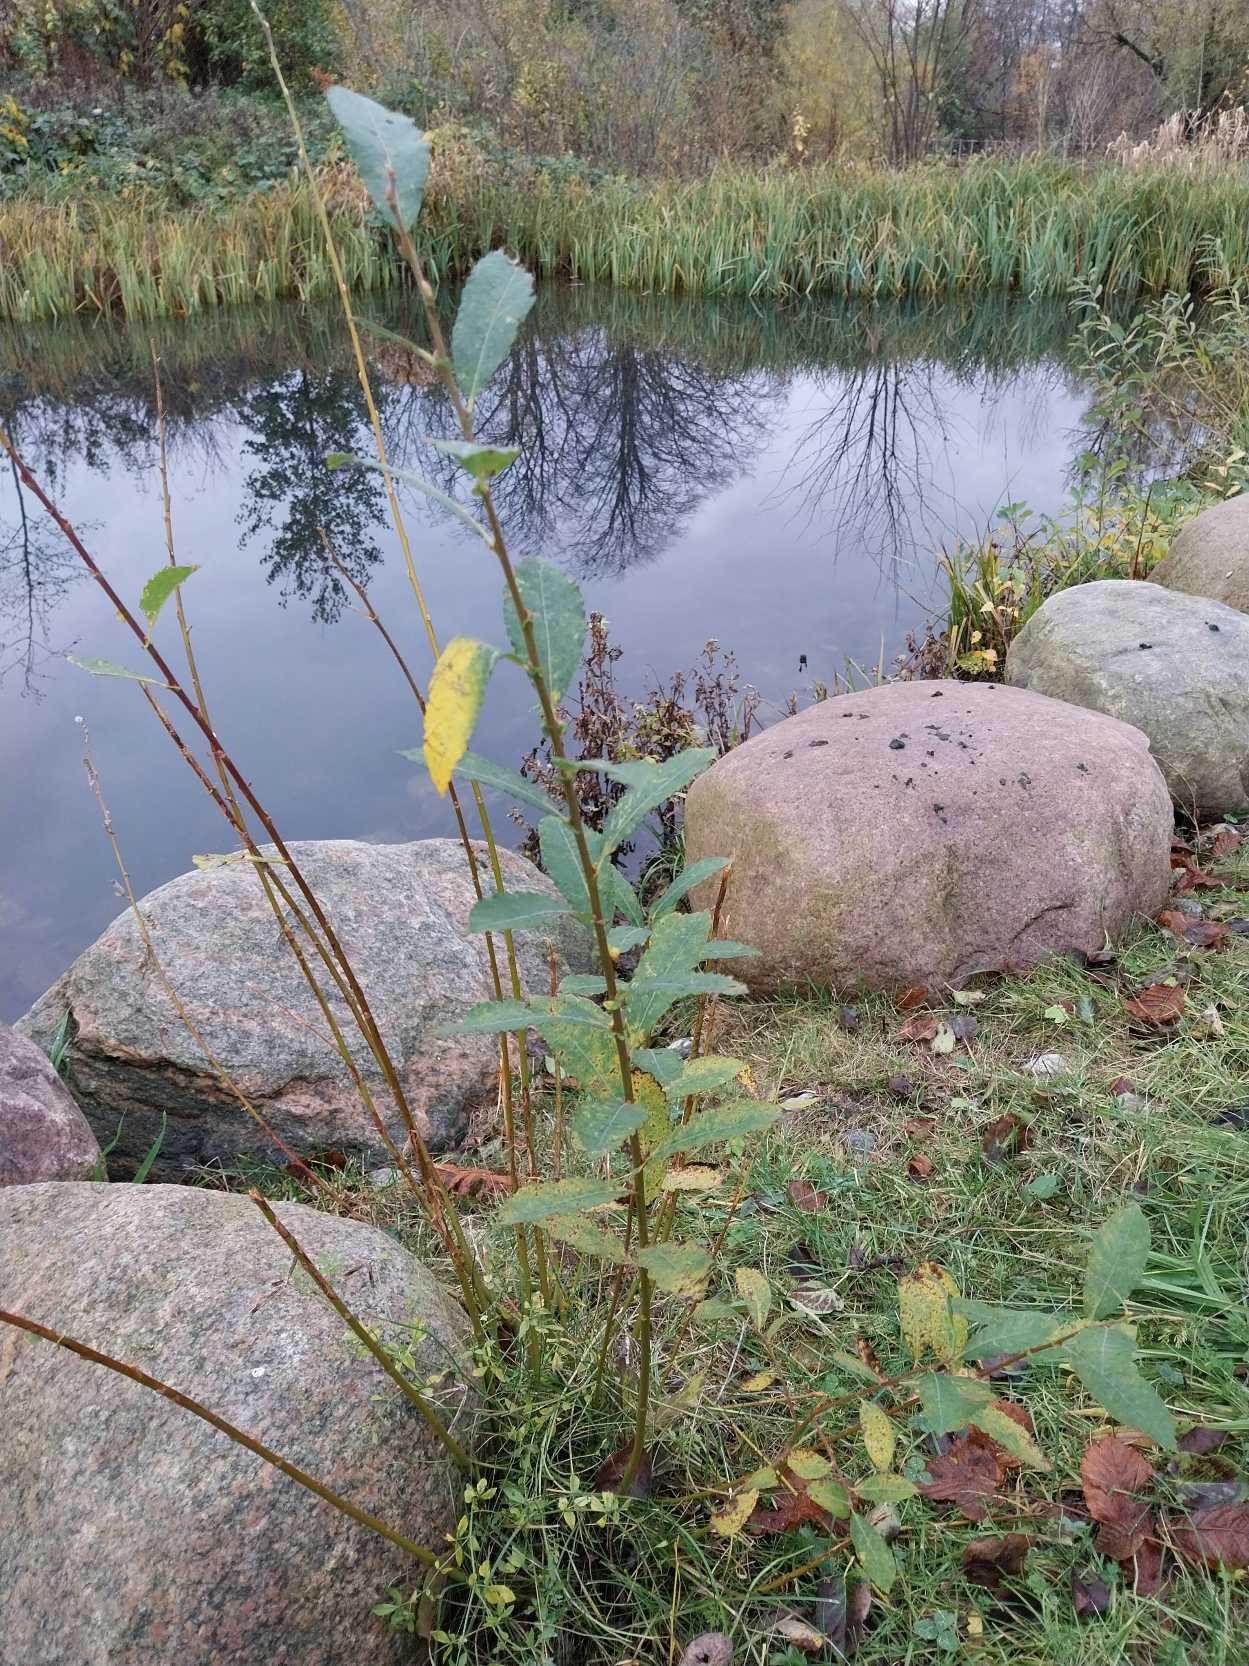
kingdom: Plantae
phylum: Tracheophyta
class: Magnoliopsida
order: Malpighiales
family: Salicaceae
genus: Salix
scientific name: Salix cinerea
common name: Grå-pil
